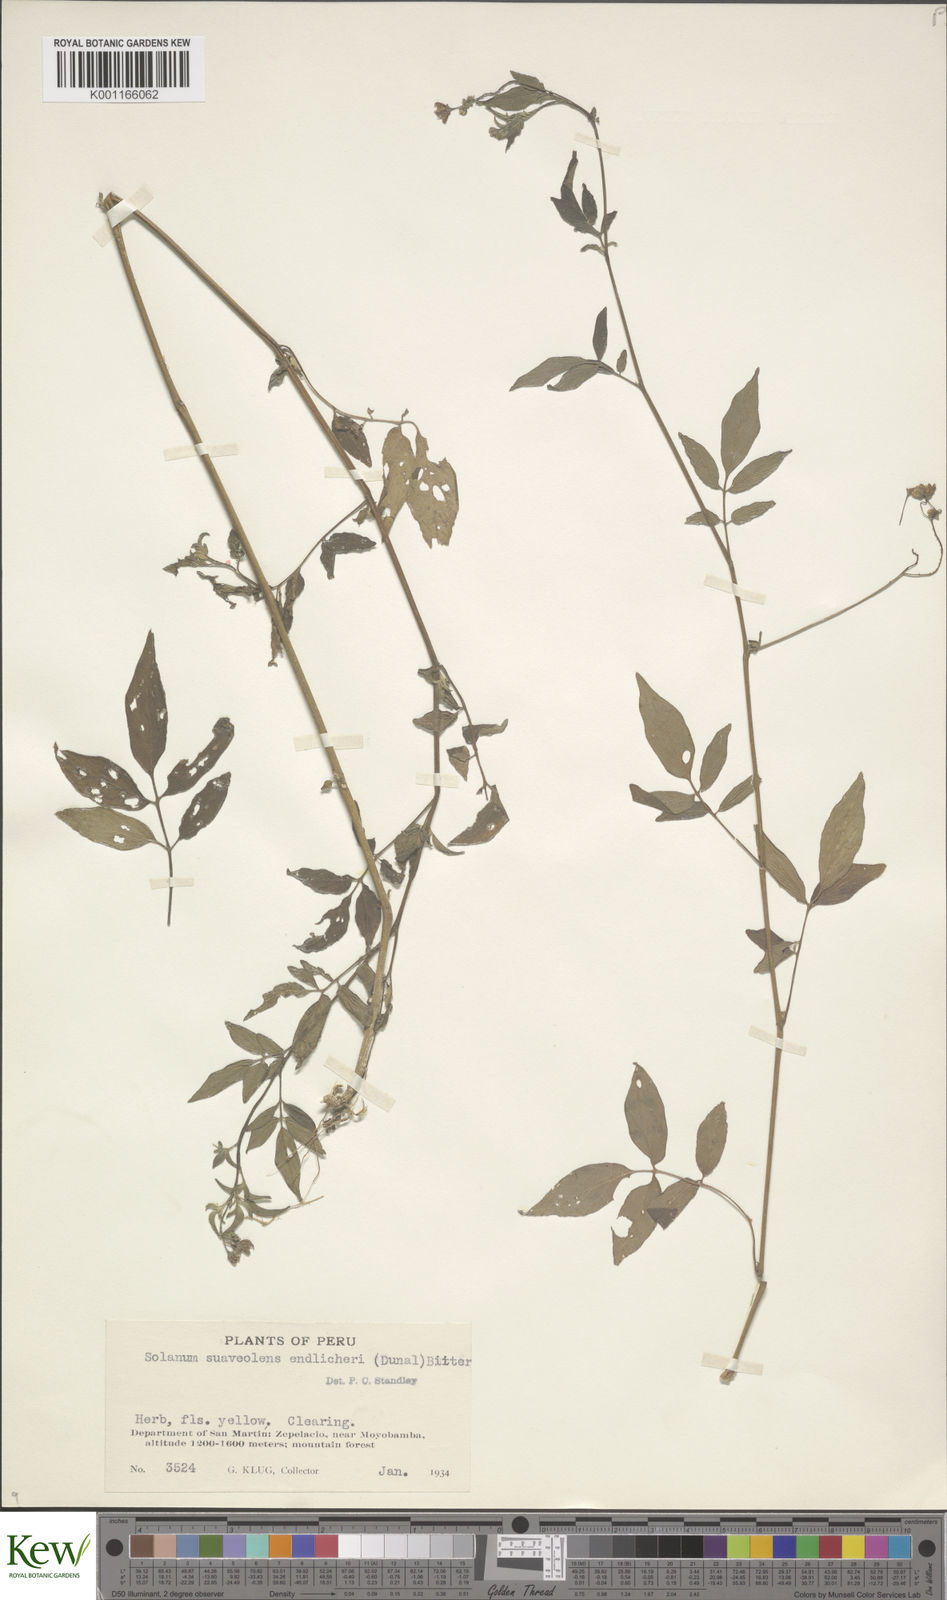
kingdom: Plantae
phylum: Tracheophyta
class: Magnoliopsida
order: Solanales
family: Solanaceae
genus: Solanum
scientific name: Solanum suaveolens
